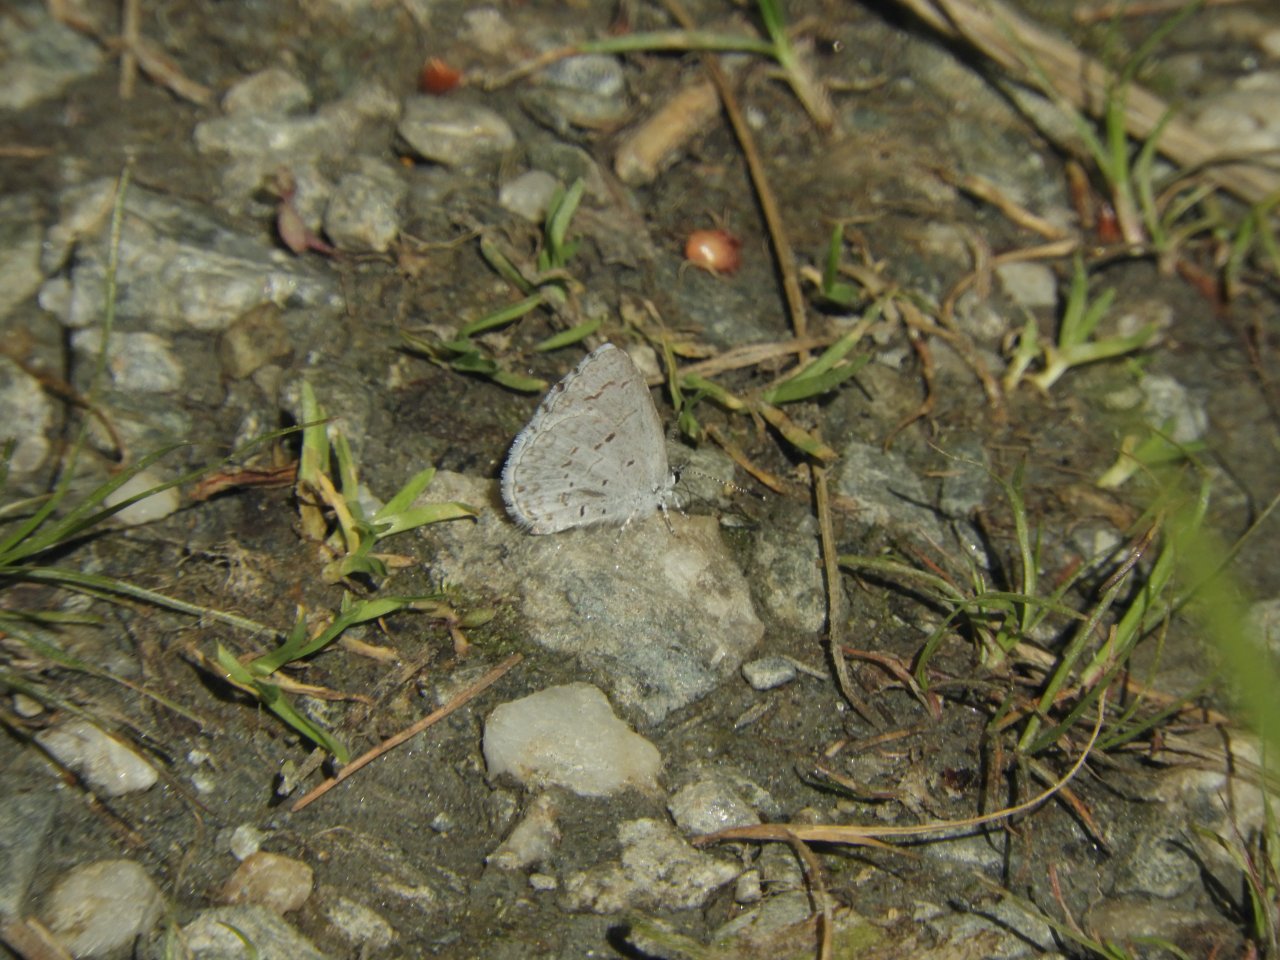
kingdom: Animalia
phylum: Arthropoda
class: Insecta
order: Lepidoptera
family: Lycaenidae
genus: Celastrina
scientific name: Celastrina
